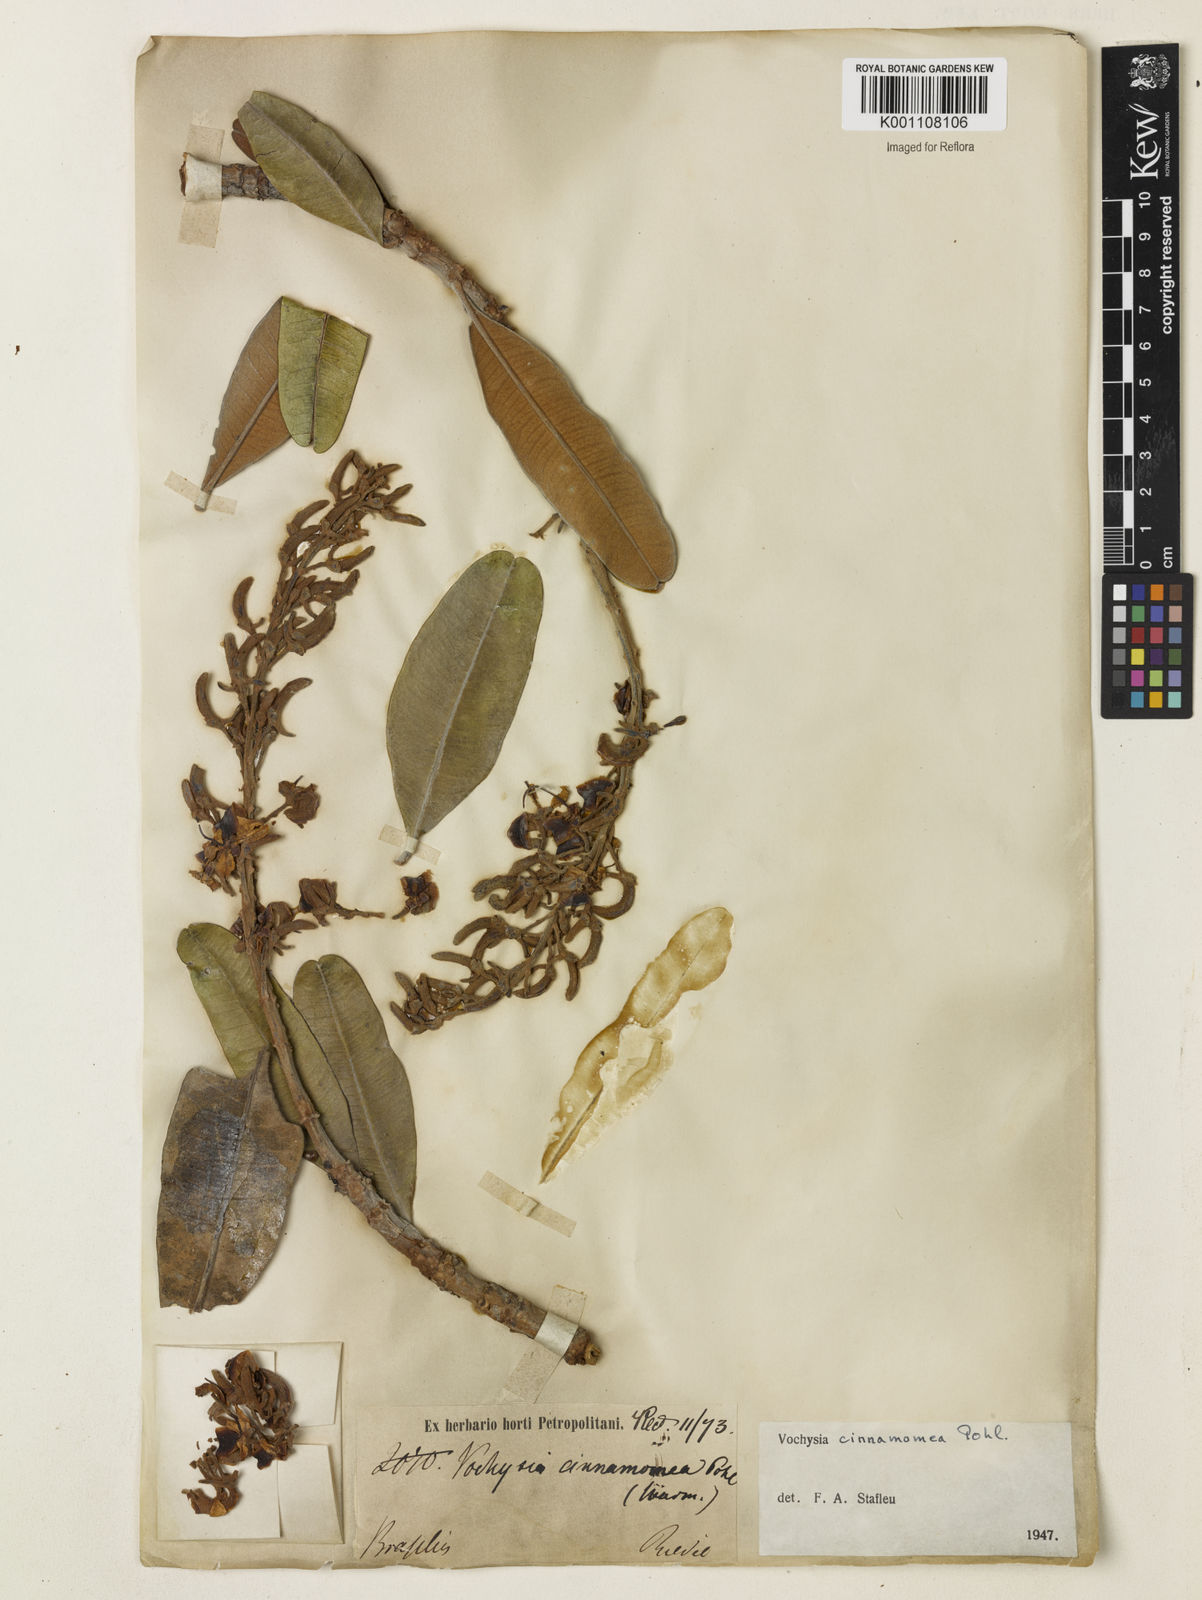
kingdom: Plantae
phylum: Tracheophyta
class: Magnoliopsida
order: Myrtales
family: Vochysiaceae
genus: Vochysia
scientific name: Vochysia cinnamomea
